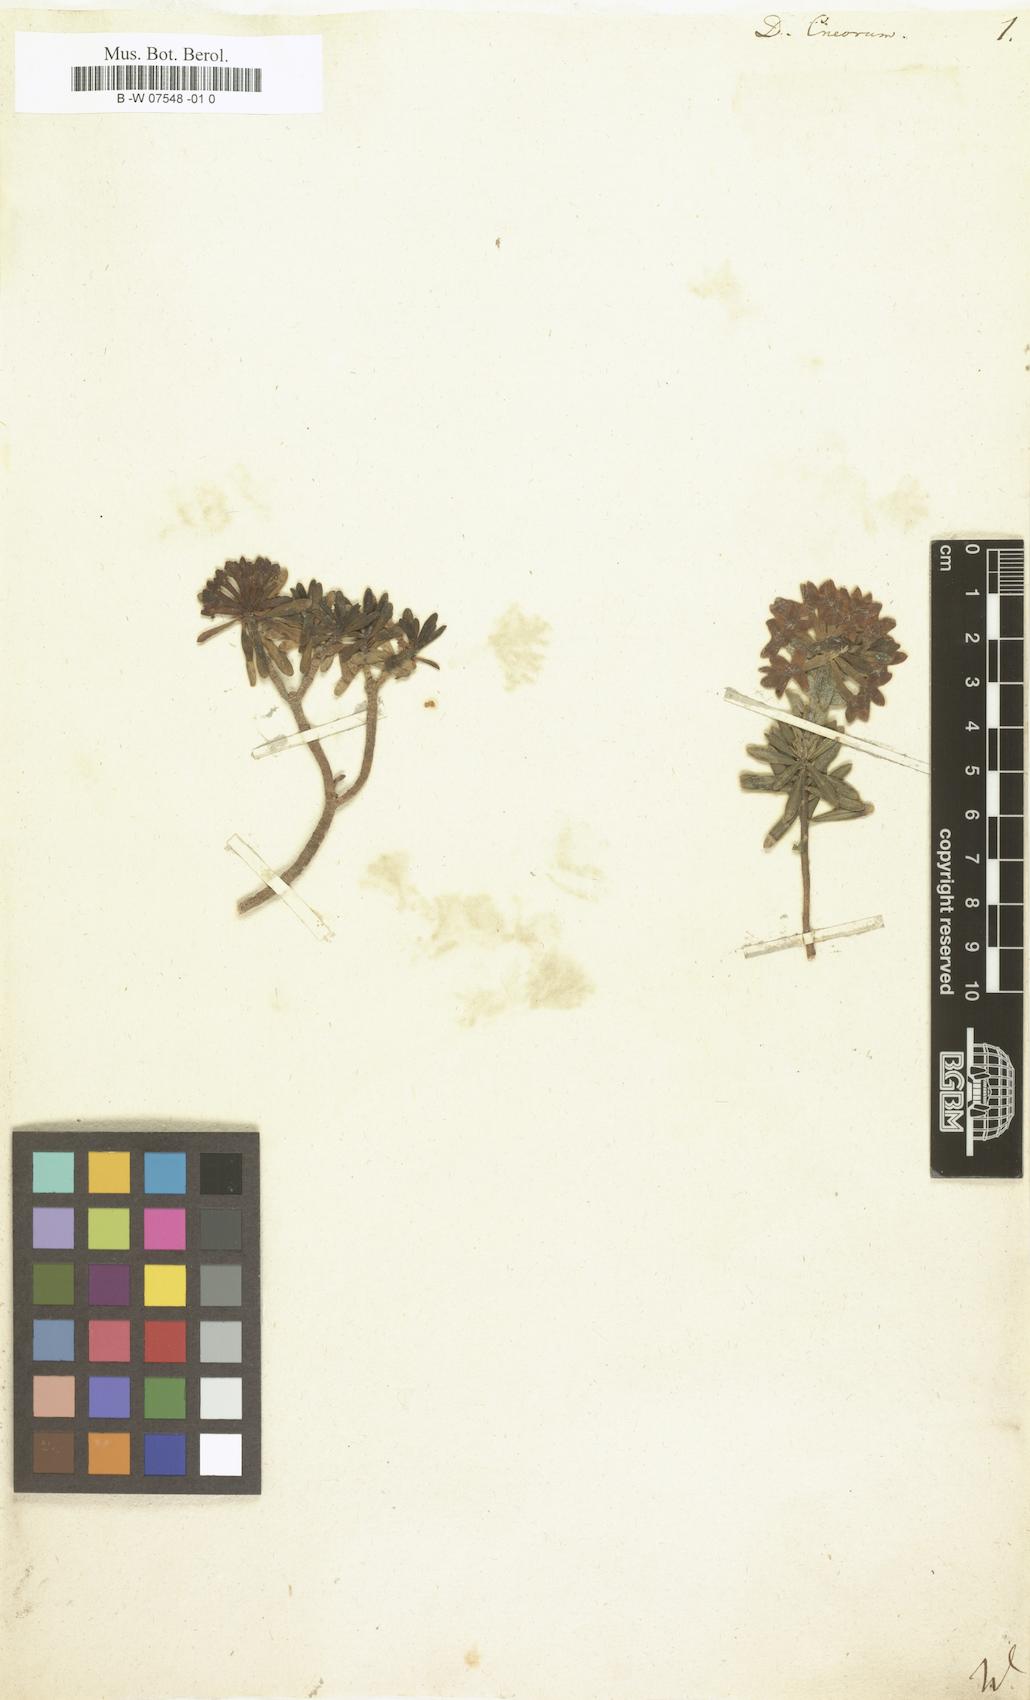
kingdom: Plantae
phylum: Tracheophyta
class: Magnoliopsida
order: Malvales
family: Thymelaeaceae
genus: Daphne
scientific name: Daphne cneorum
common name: Garland-flower
